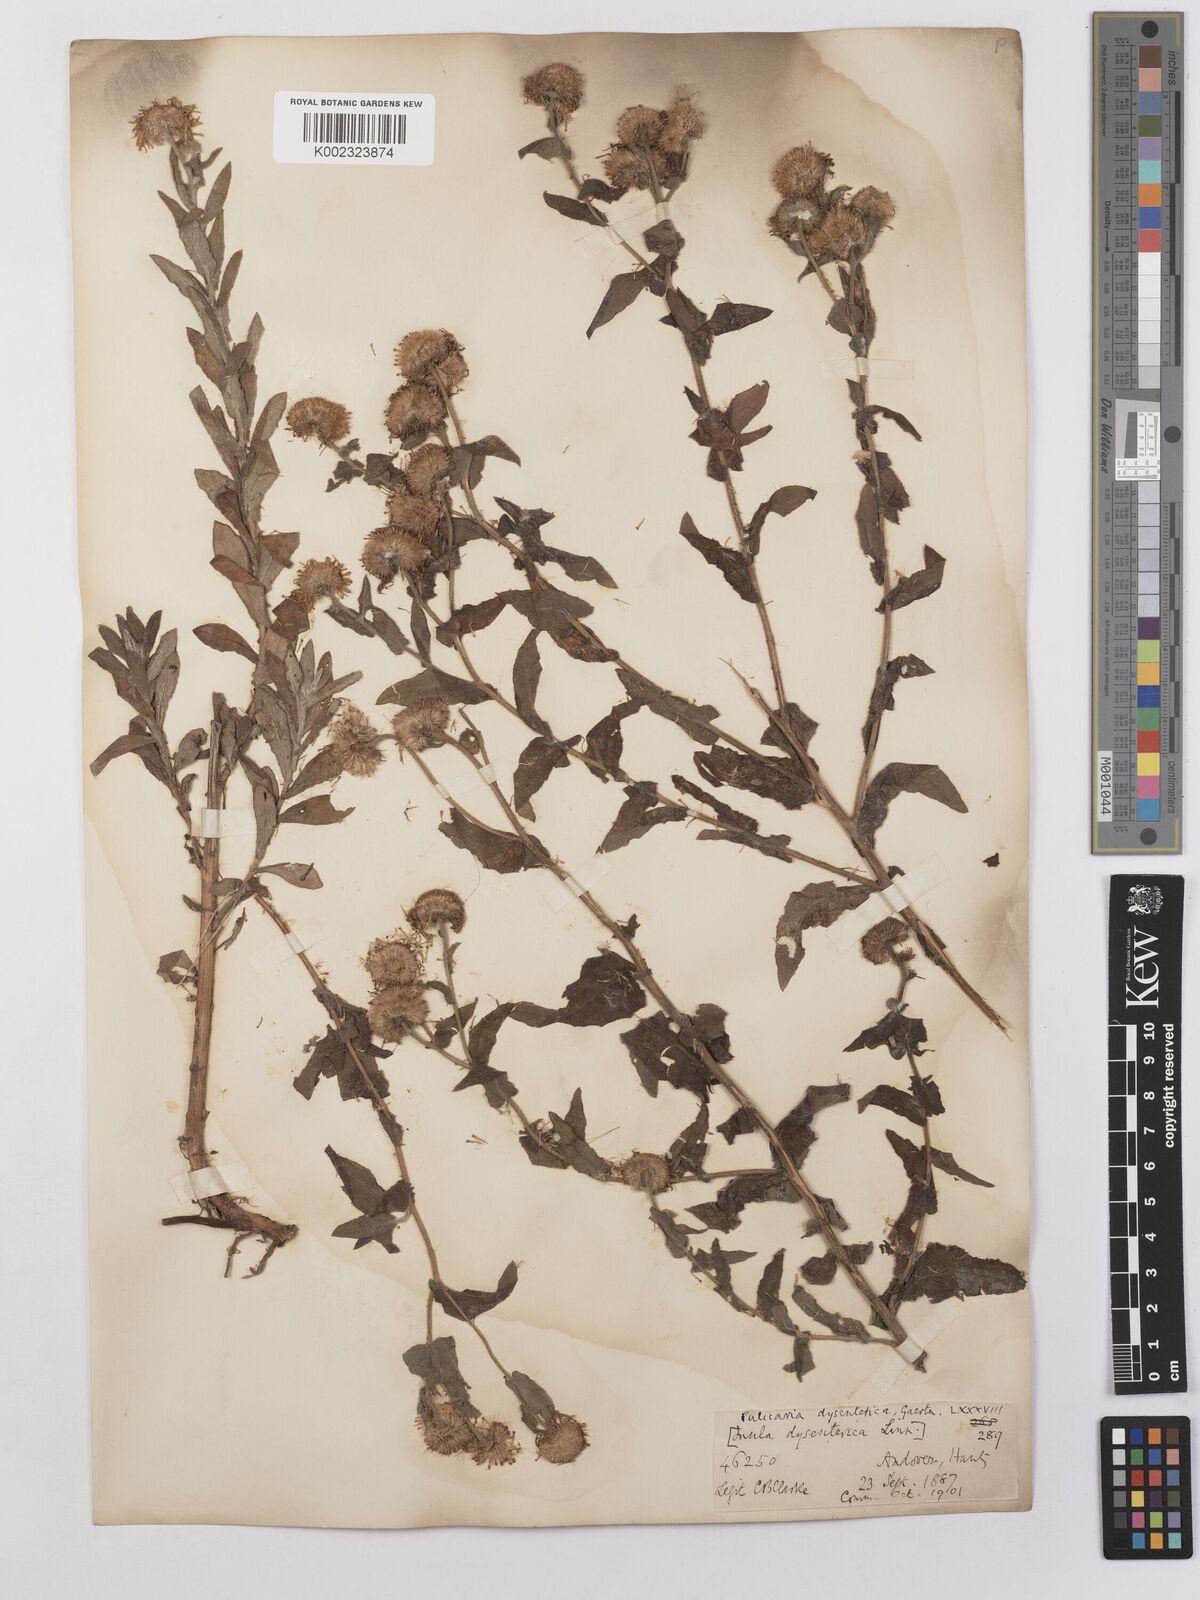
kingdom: Plantae
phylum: Tracheophyta
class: Magnoliopsida
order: Asterales
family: Asteraceae
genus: Pulicaria
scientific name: Pulicaria dysenterica
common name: Common fleabane
